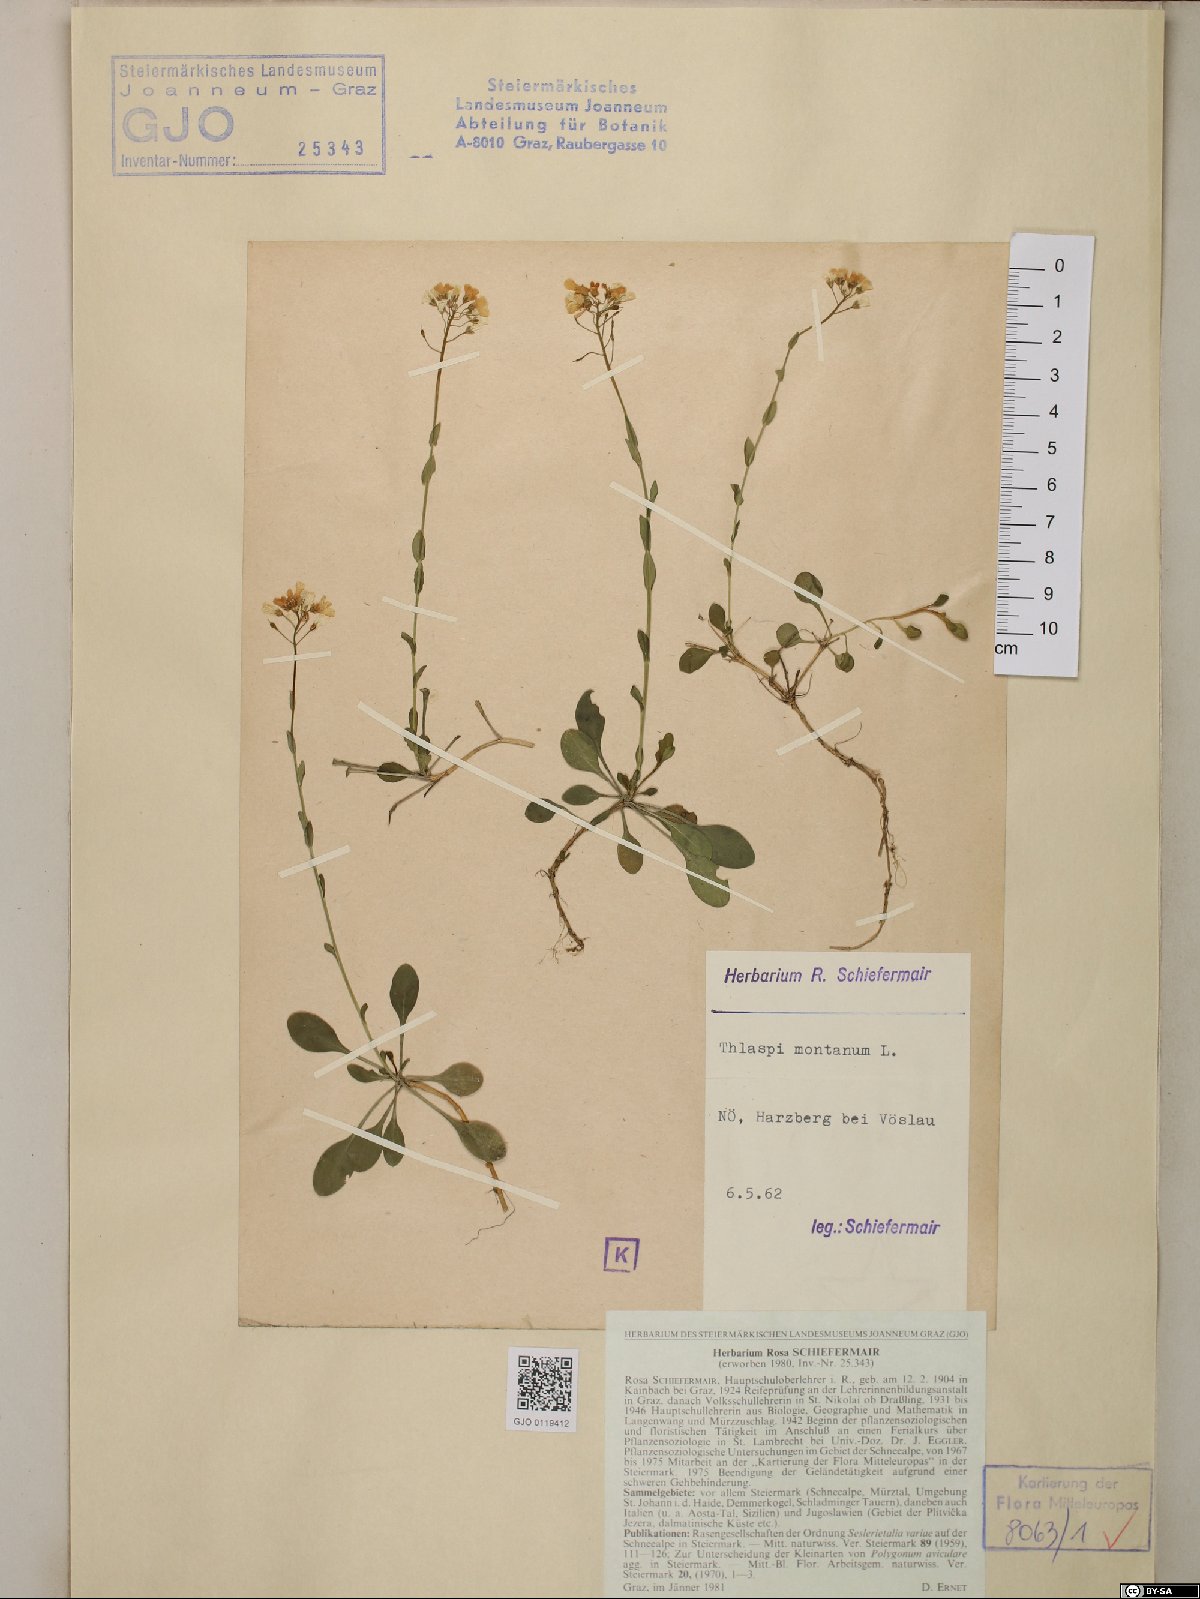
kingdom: Plantae
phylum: Tracheophyta
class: Magnoliopsida
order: Brassicales
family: Brassicaceae
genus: Noccaea
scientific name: Noccaea montana
